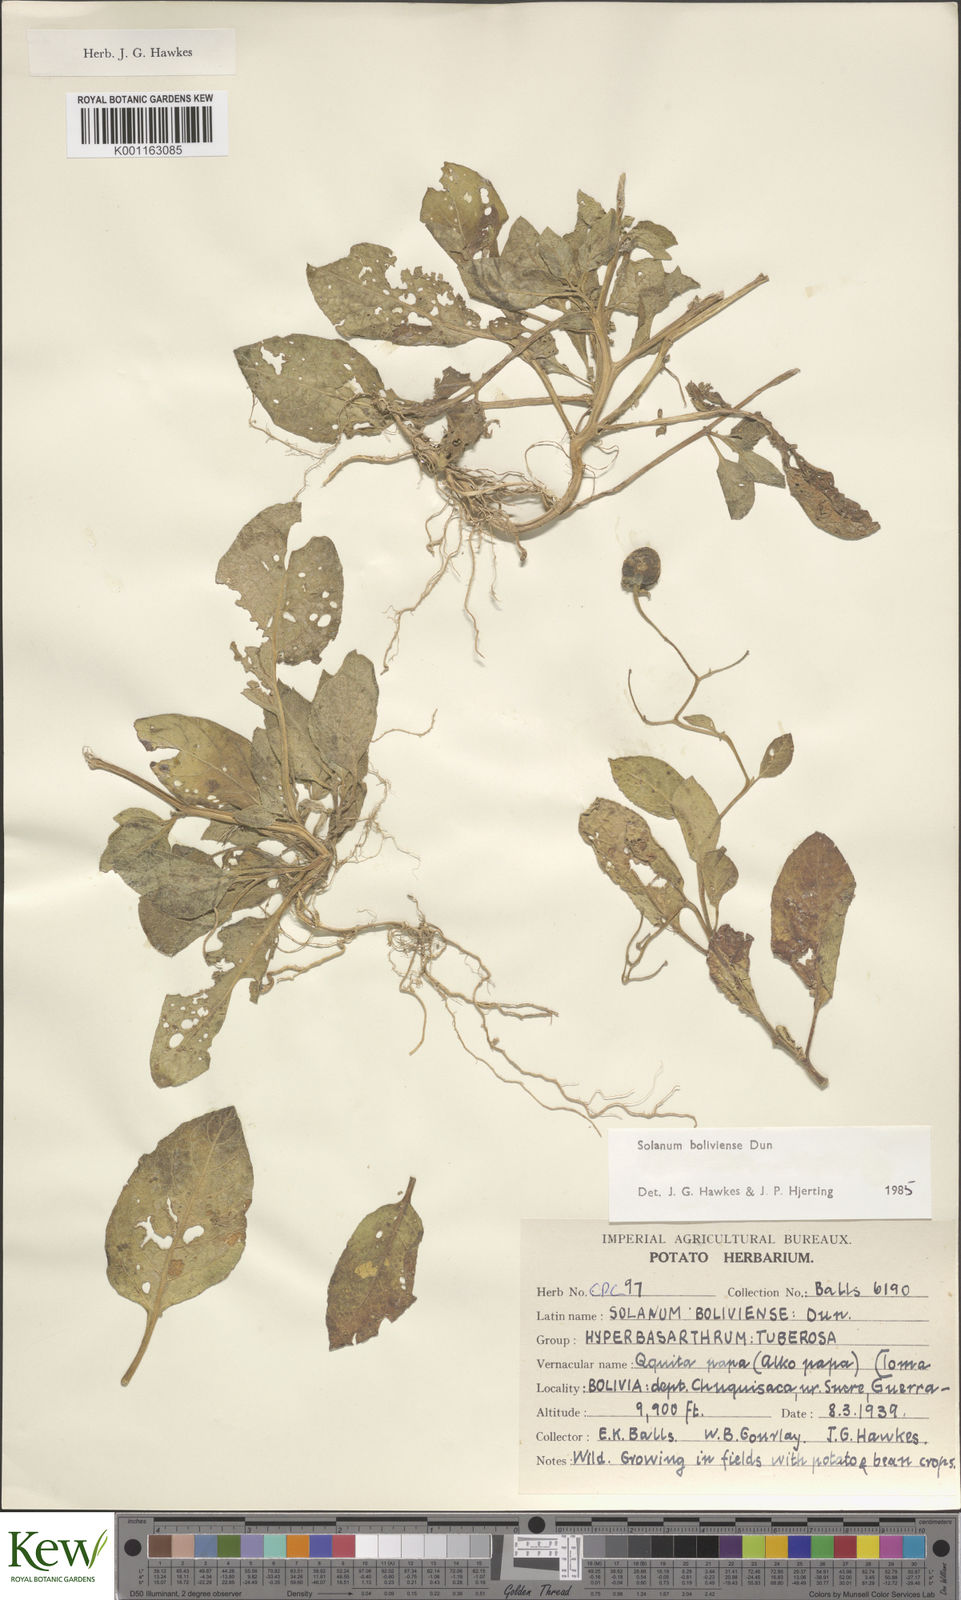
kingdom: Plantae
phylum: Tracheophyta
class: Magnoliopsida
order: Solanales
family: Solanaceae
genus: Solanum
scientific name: Solanum boliviense
